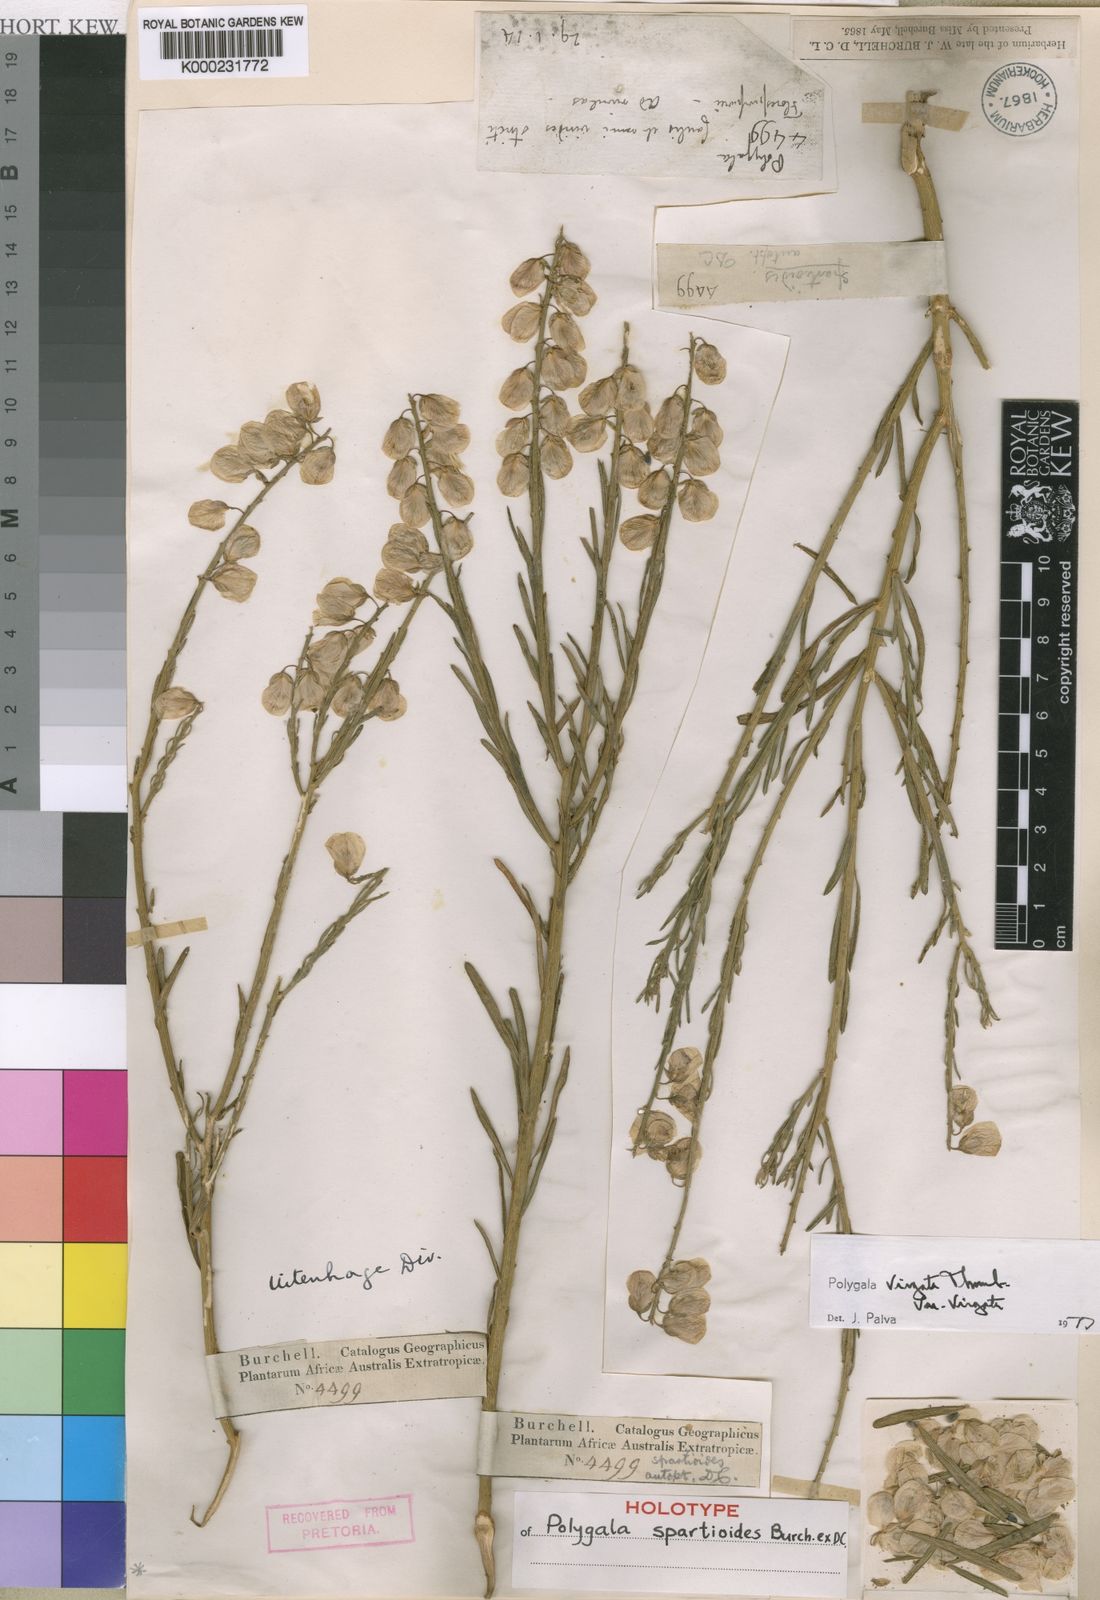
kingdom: Plantae
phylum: Tracheophyta
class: Magnoliopsida
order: Fabales
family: Polygalaceae
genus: Polygala
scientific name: Polygala virgata
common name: Milkwort
